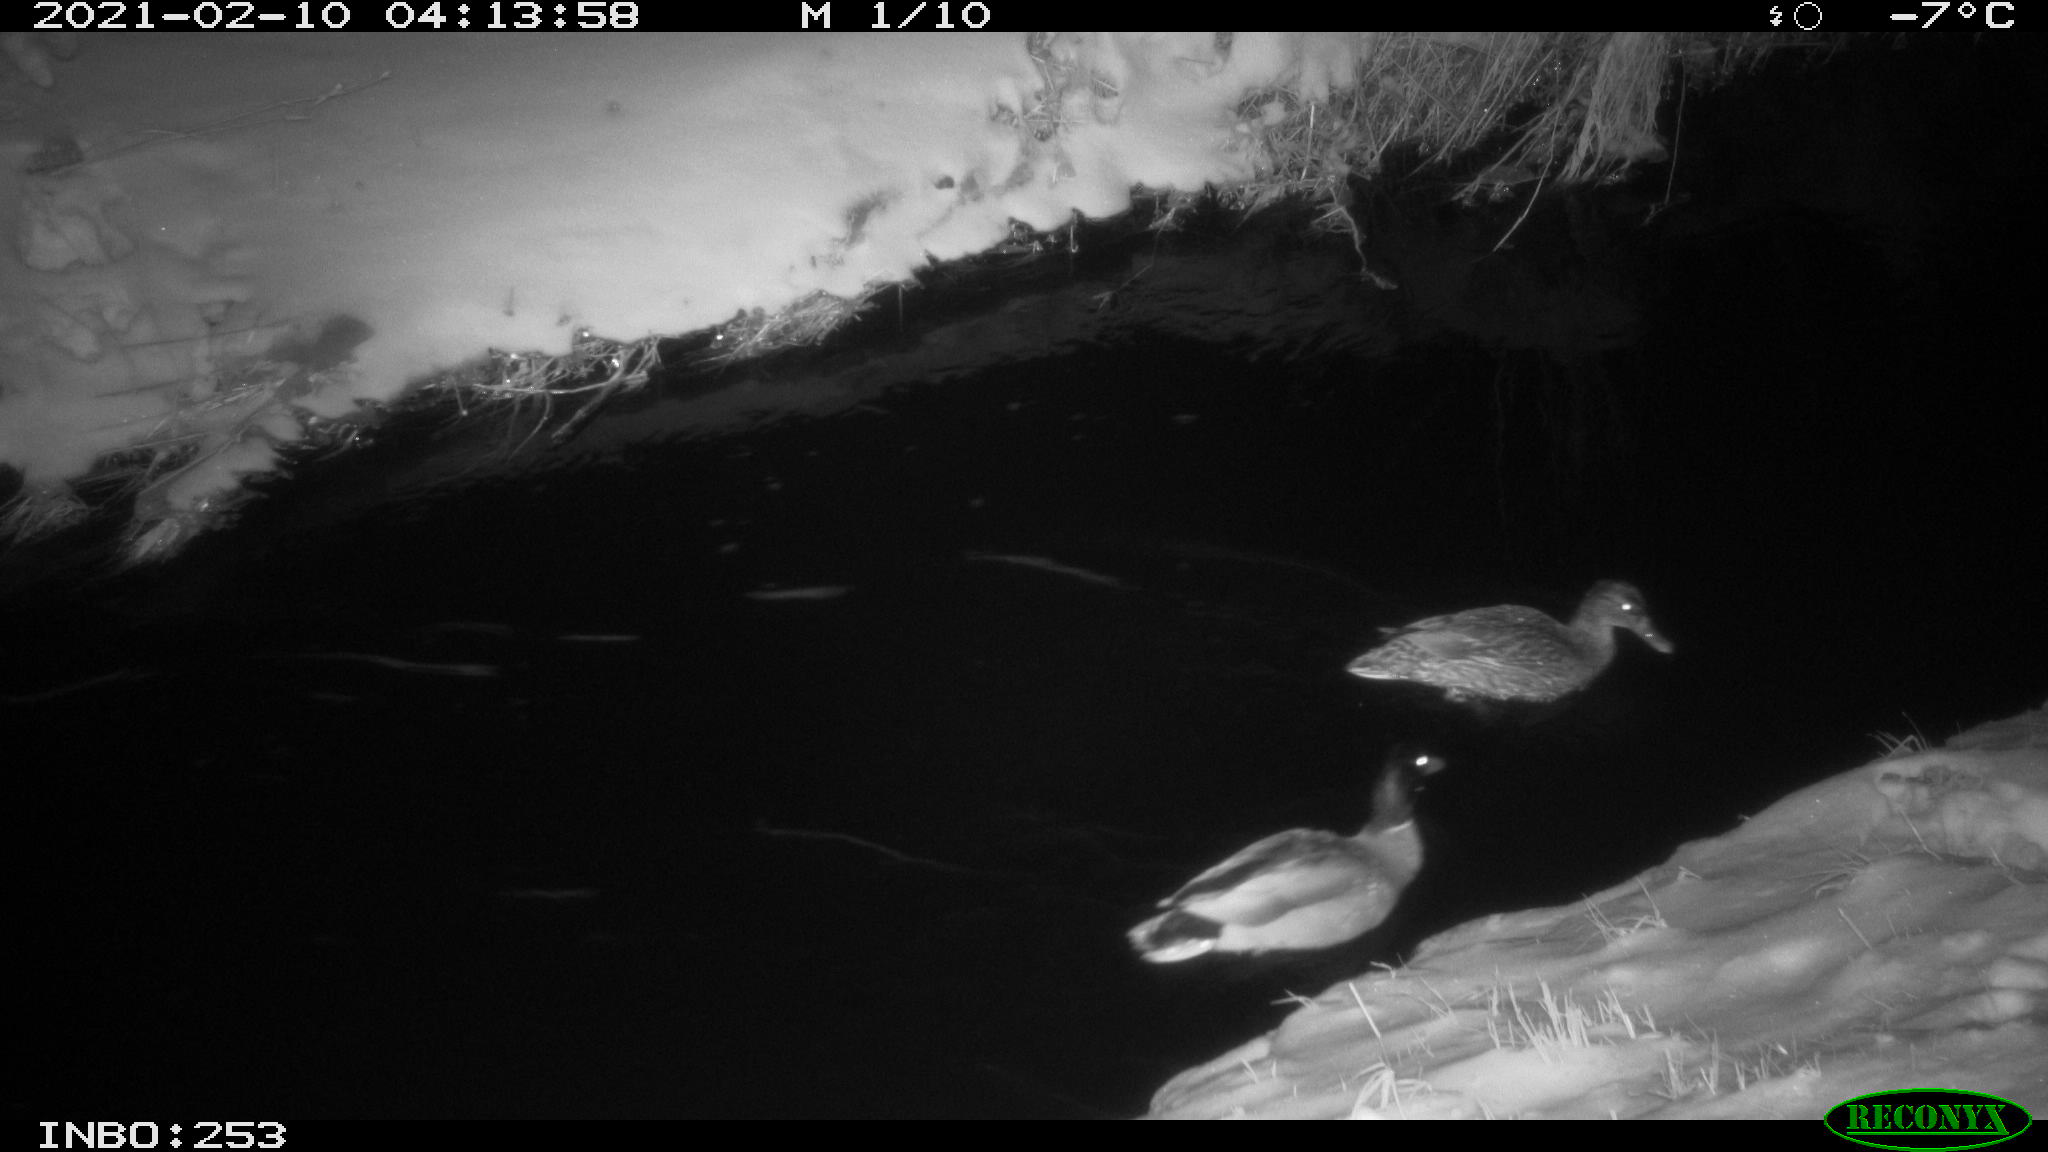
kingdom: Animalia
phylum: Chordata
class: Aves
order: Anseriformes
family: Anatidae
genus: Anas
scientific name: Anas platyrhynchos
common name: Mallard
